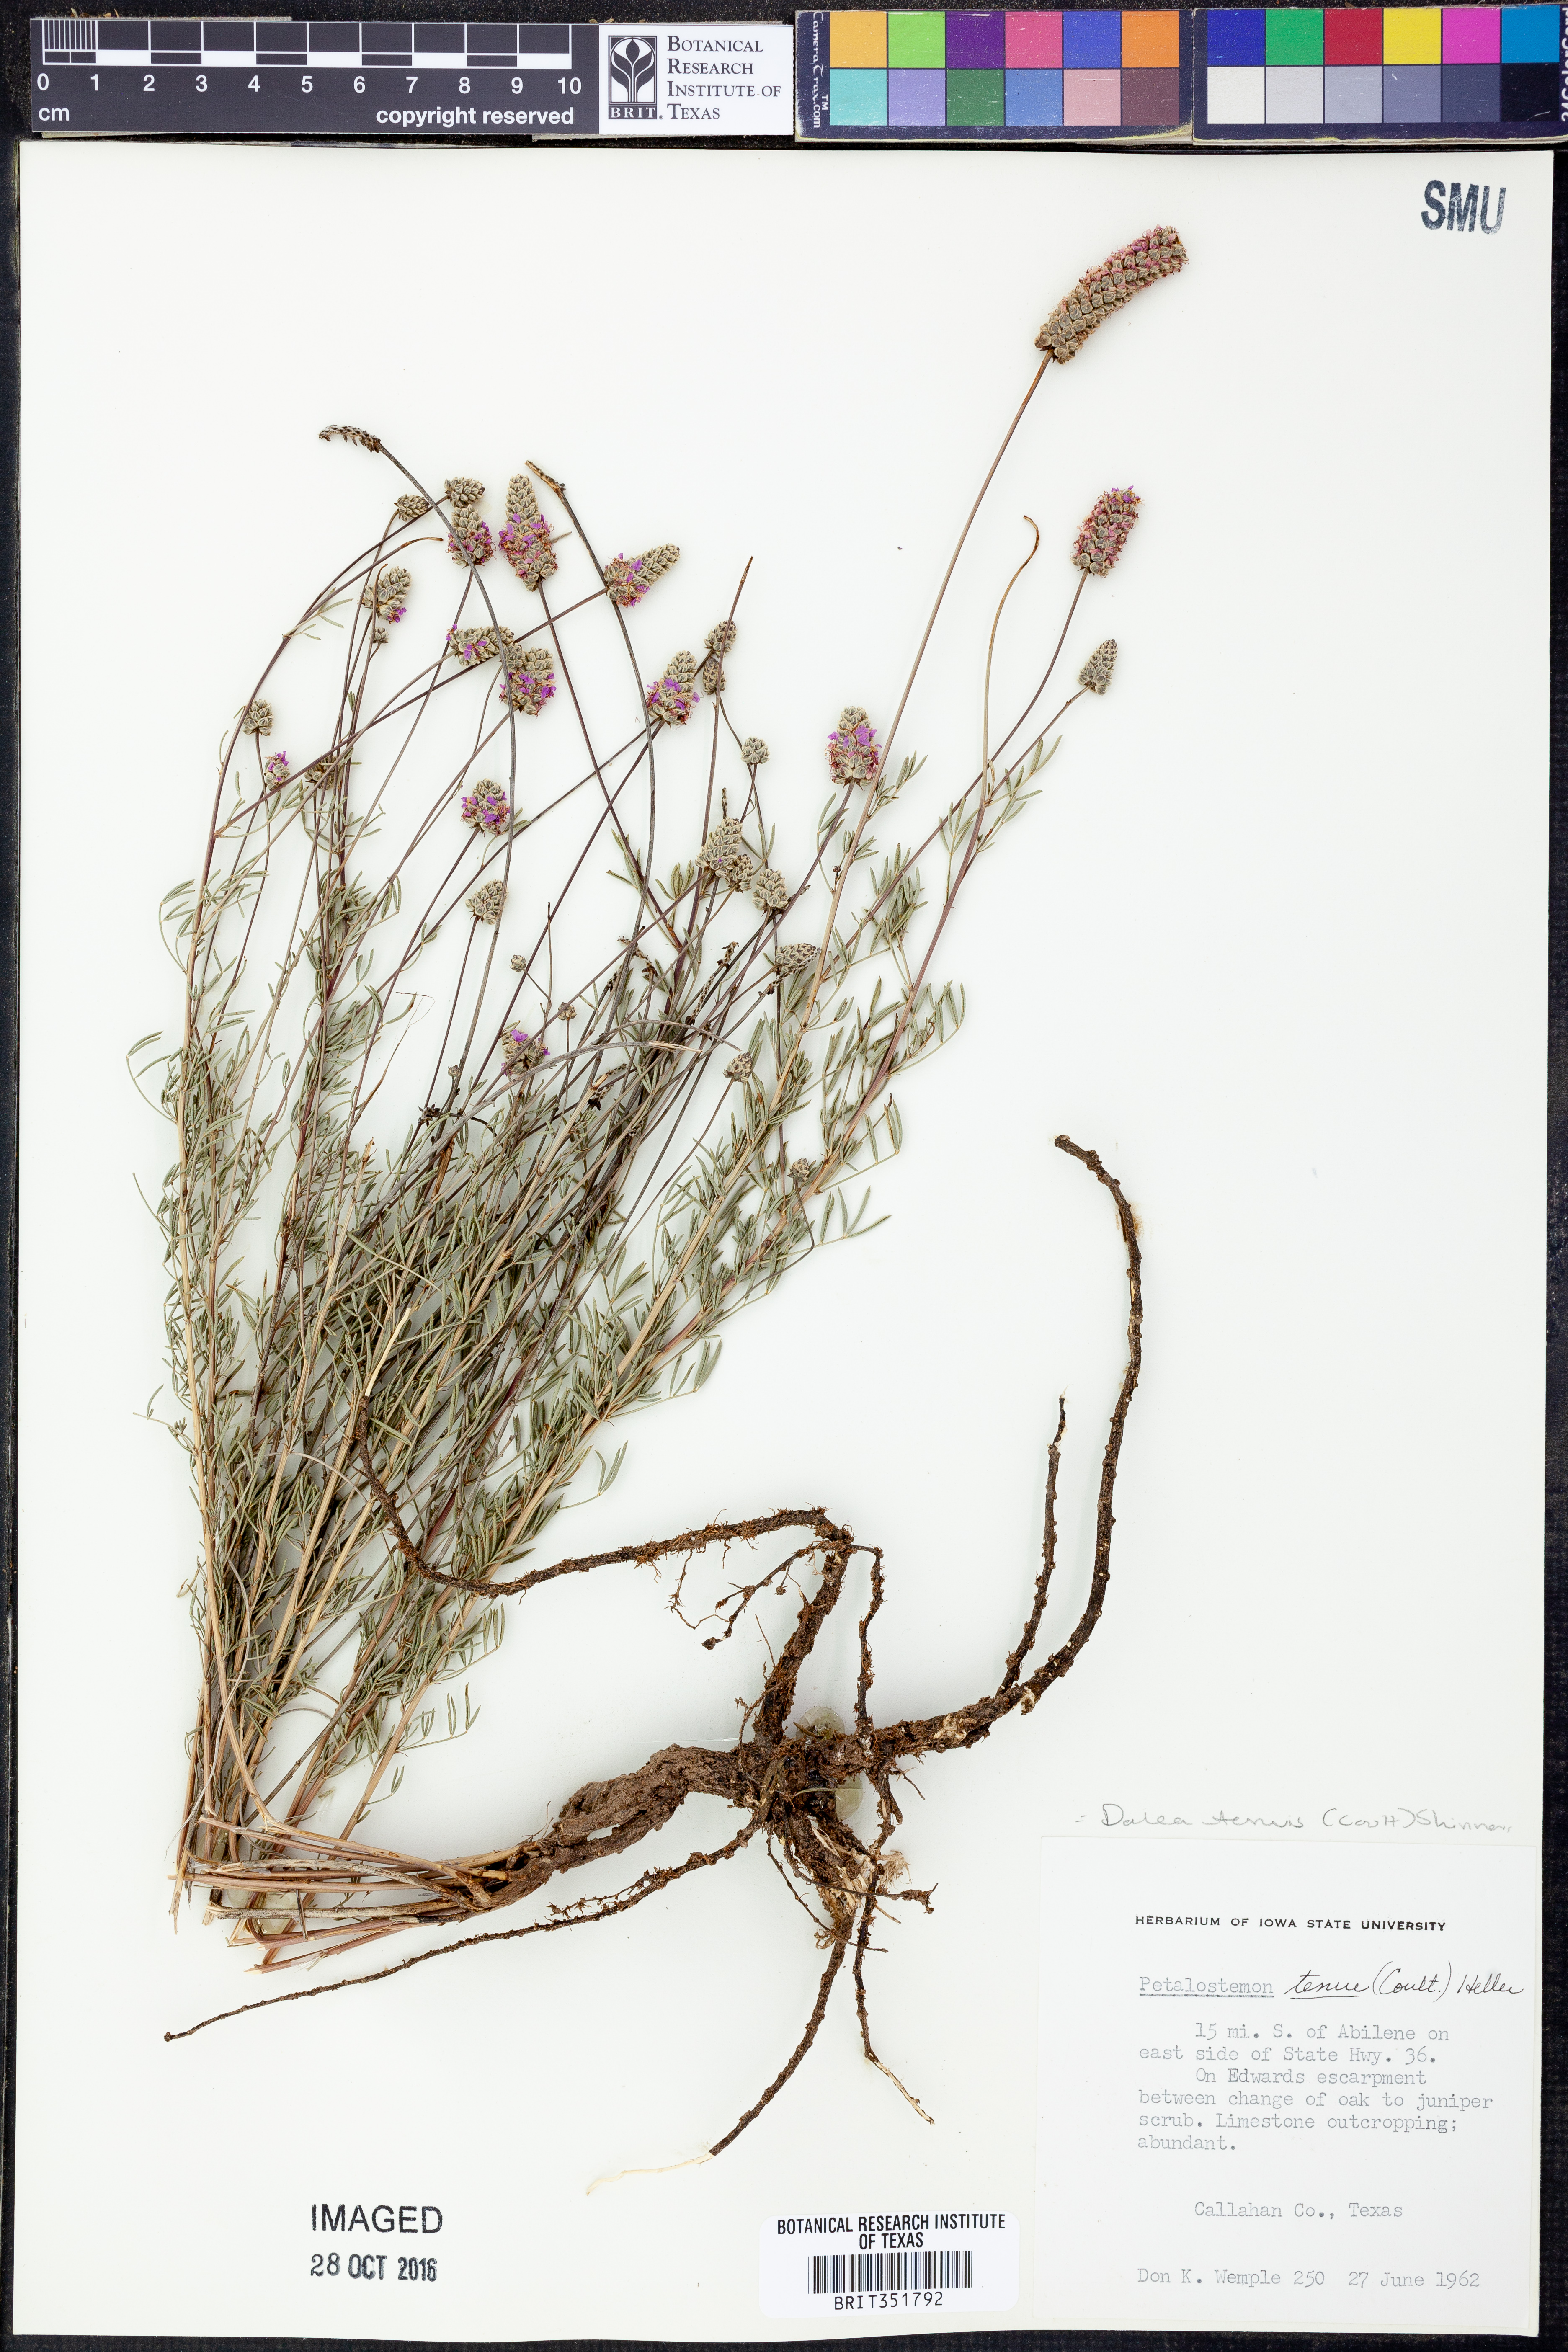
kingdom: Plantae
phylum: Tracheophyta
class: Magnoliopsida
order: Fabales
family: Fabaceae
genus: Dalea
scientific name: Dalea tenuis
